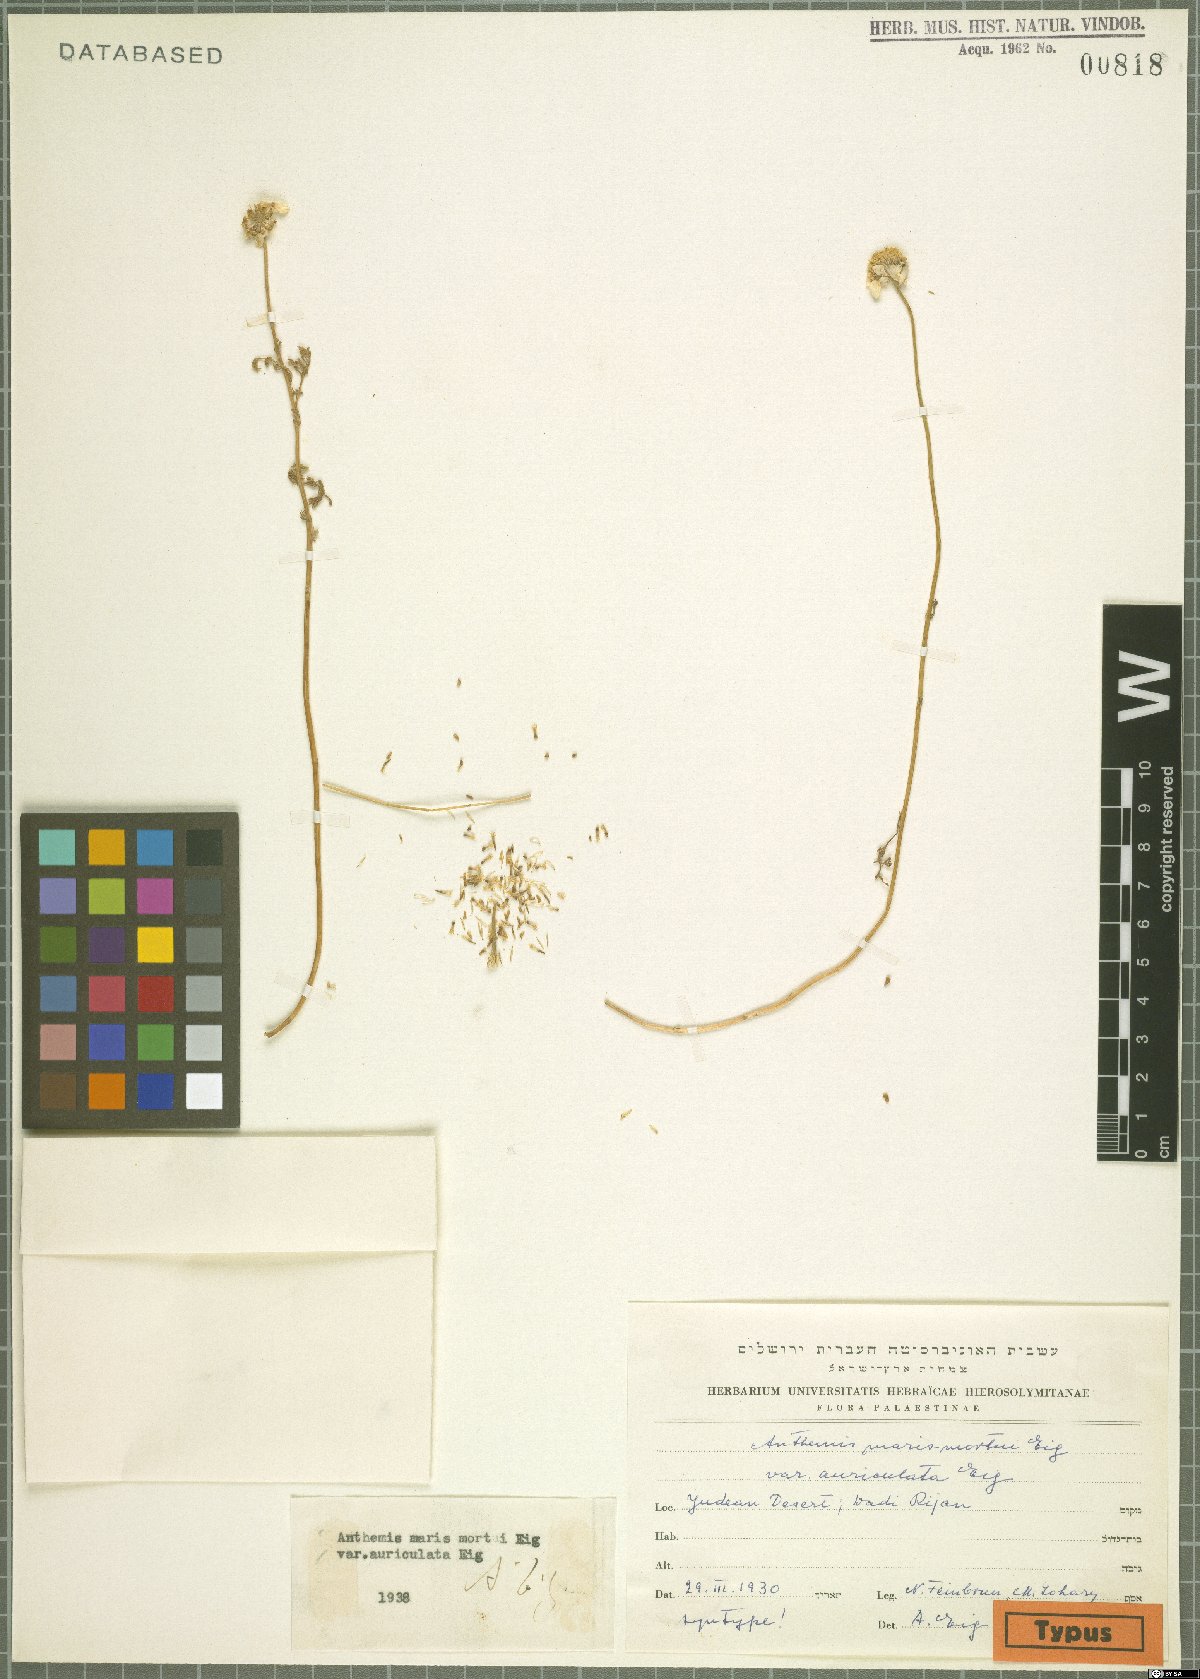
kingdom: Plantae
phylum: Tracheophyta
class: Magnoliopsida
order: Asterales
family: Asteraceae
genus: Anthemis
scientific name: Anthemis maris-mortui
